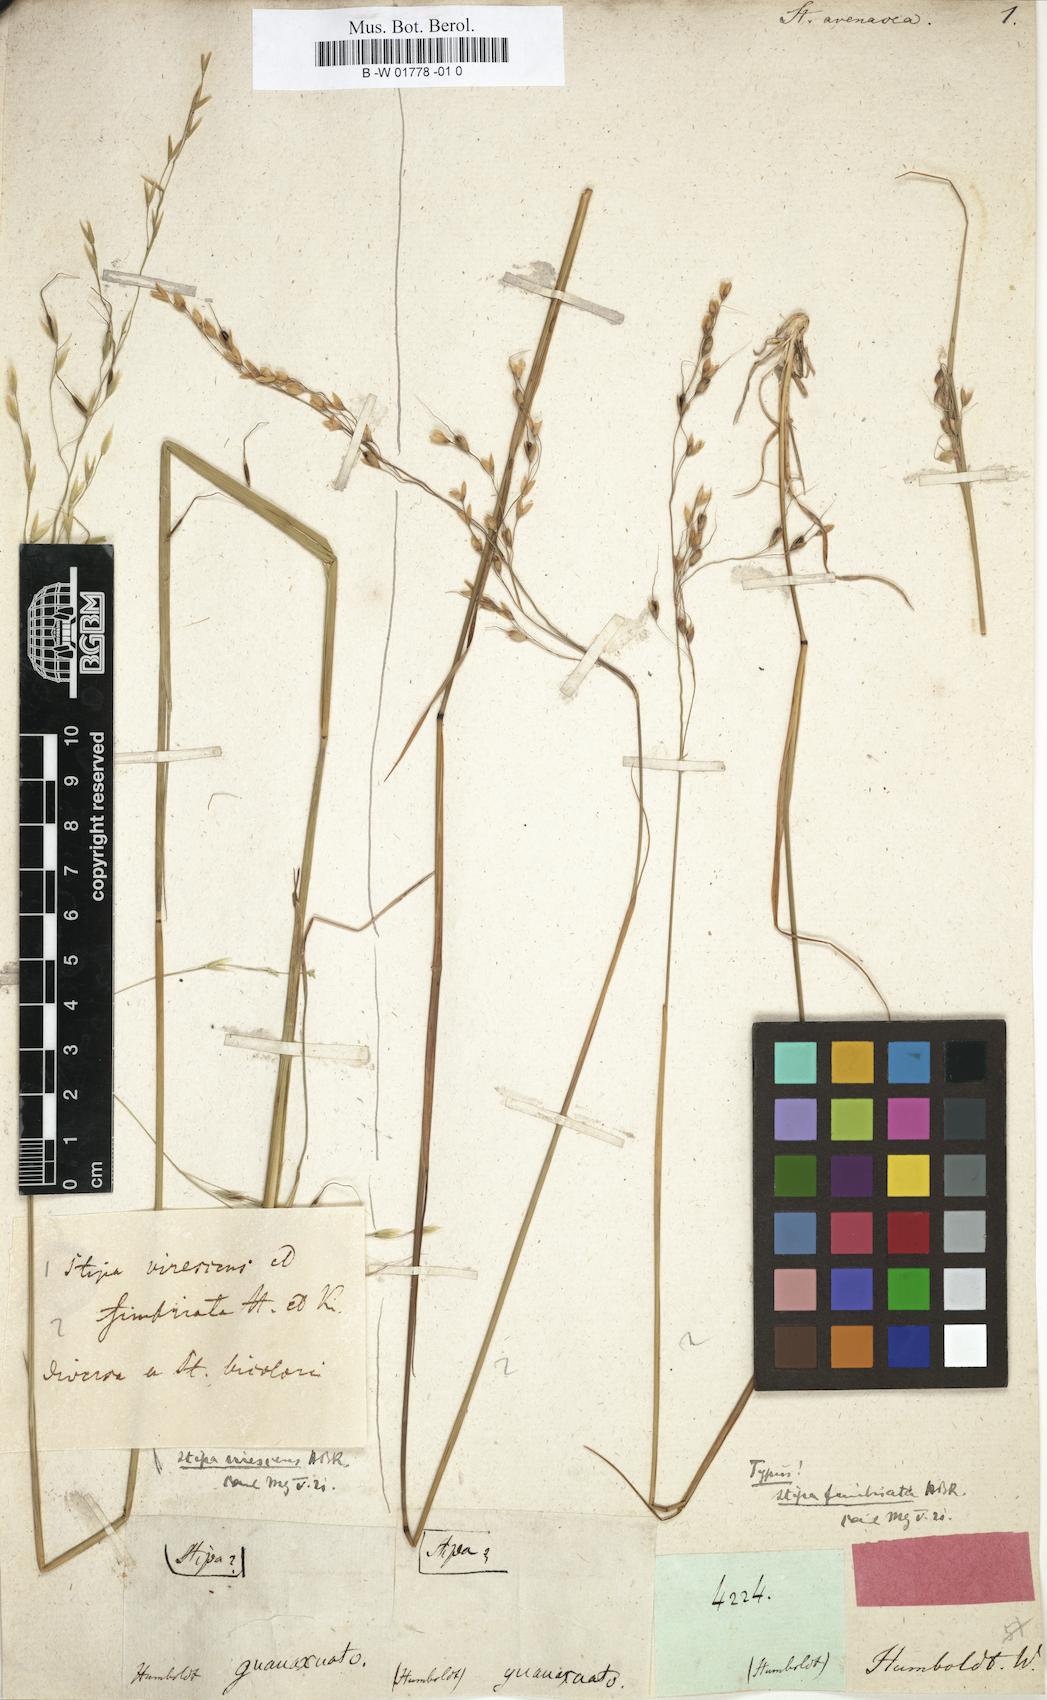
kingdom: Plantae
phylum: Tracheophyta
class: Liliopsida
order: Poales
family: Poaceae
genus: Stipa
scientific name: Stipa avenacea
